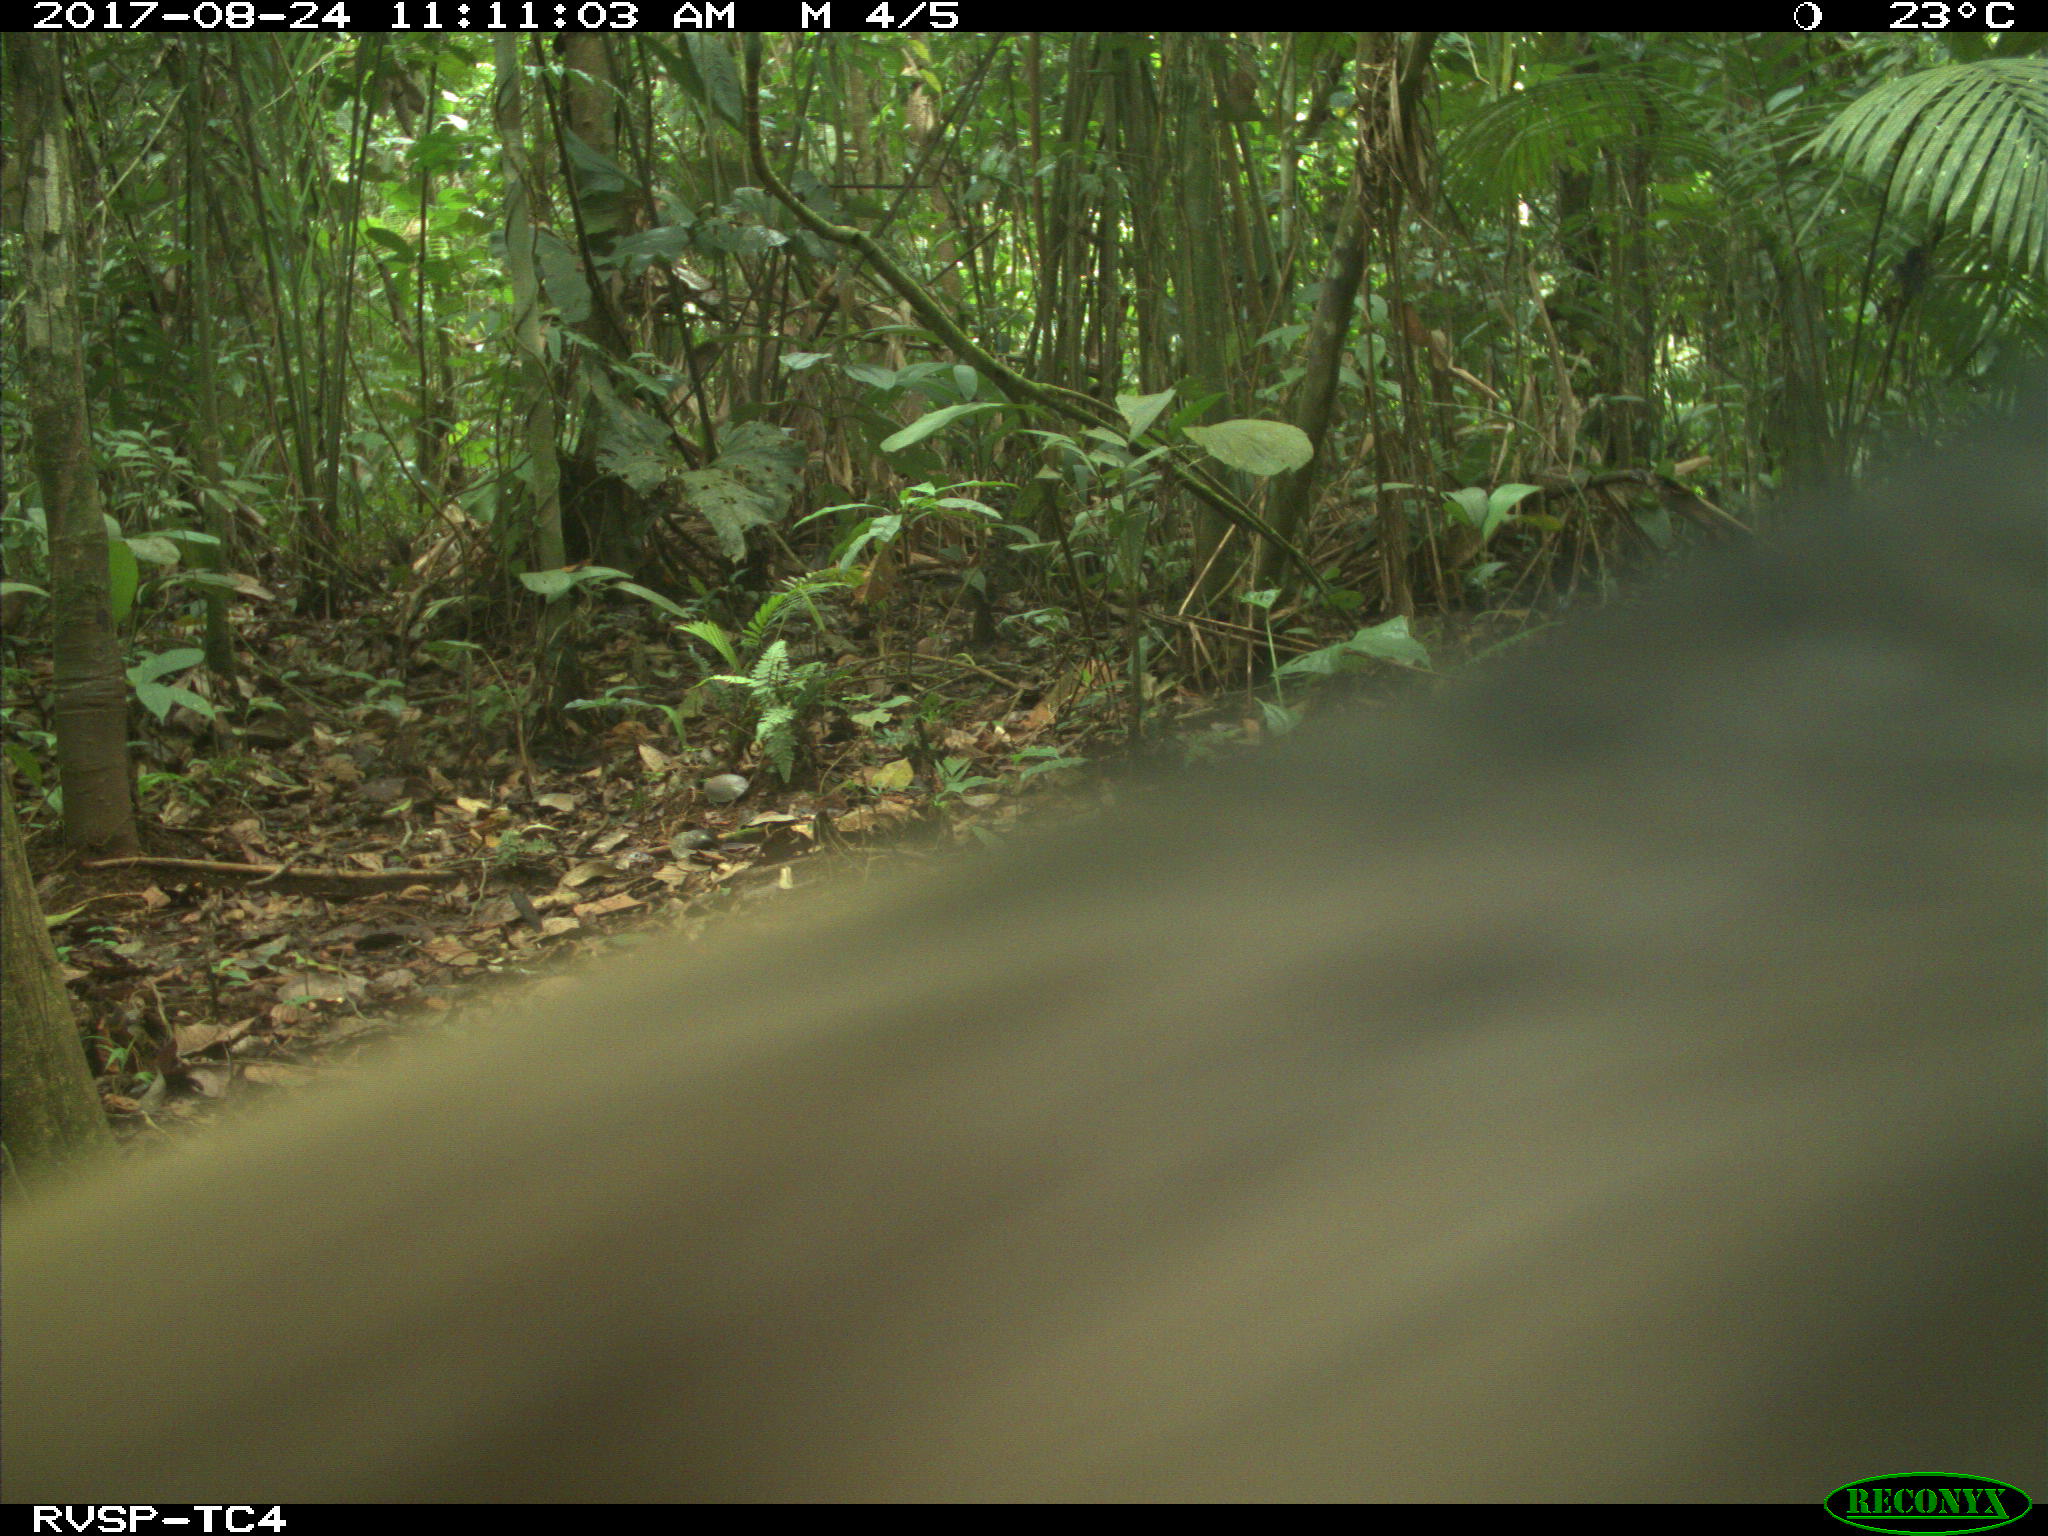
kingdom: Animalia
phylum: Chordata
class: Mammalia
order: Artiodactyla
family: Tayassuidae
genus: Tayassu
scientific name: Tayassu pecari
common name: White-lipped peccary
